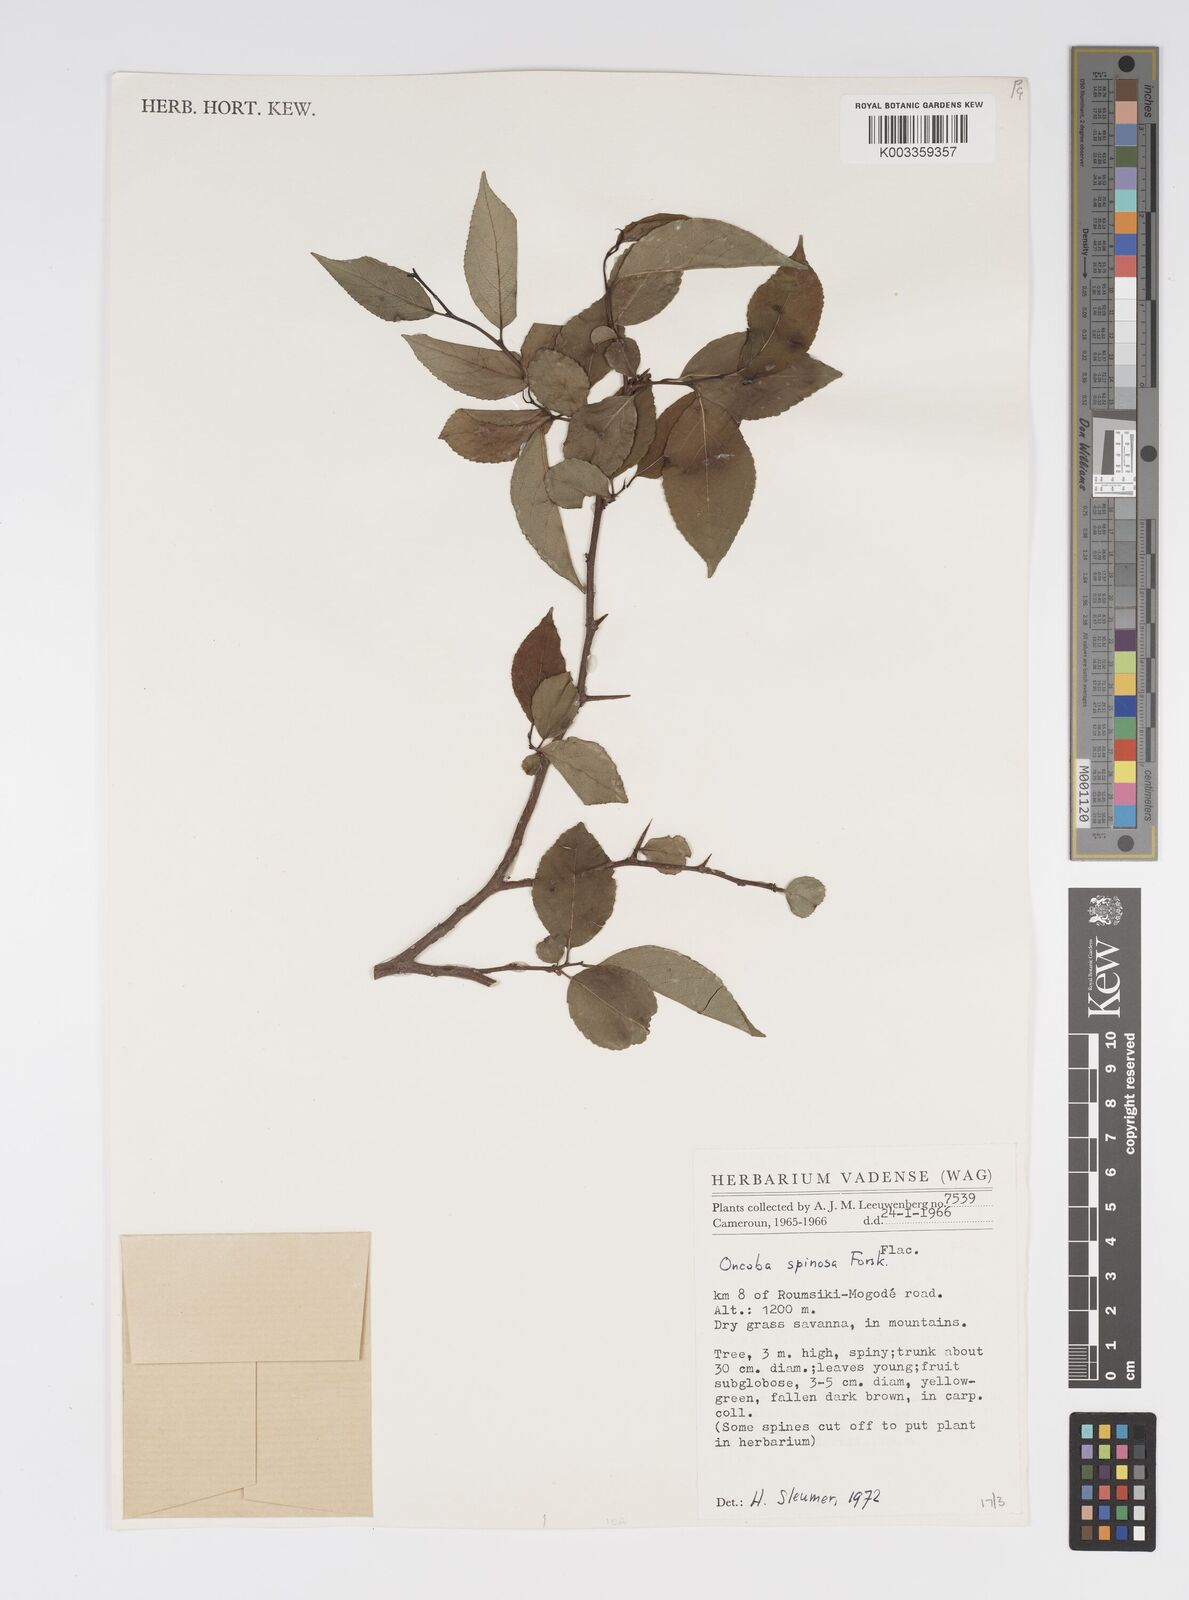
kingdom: Plantae
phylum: Tracheophyta
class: Magnoliopsida
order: Malpighiales
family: Salicaceae
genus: Oncoba
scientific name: Oncoba spinosa
